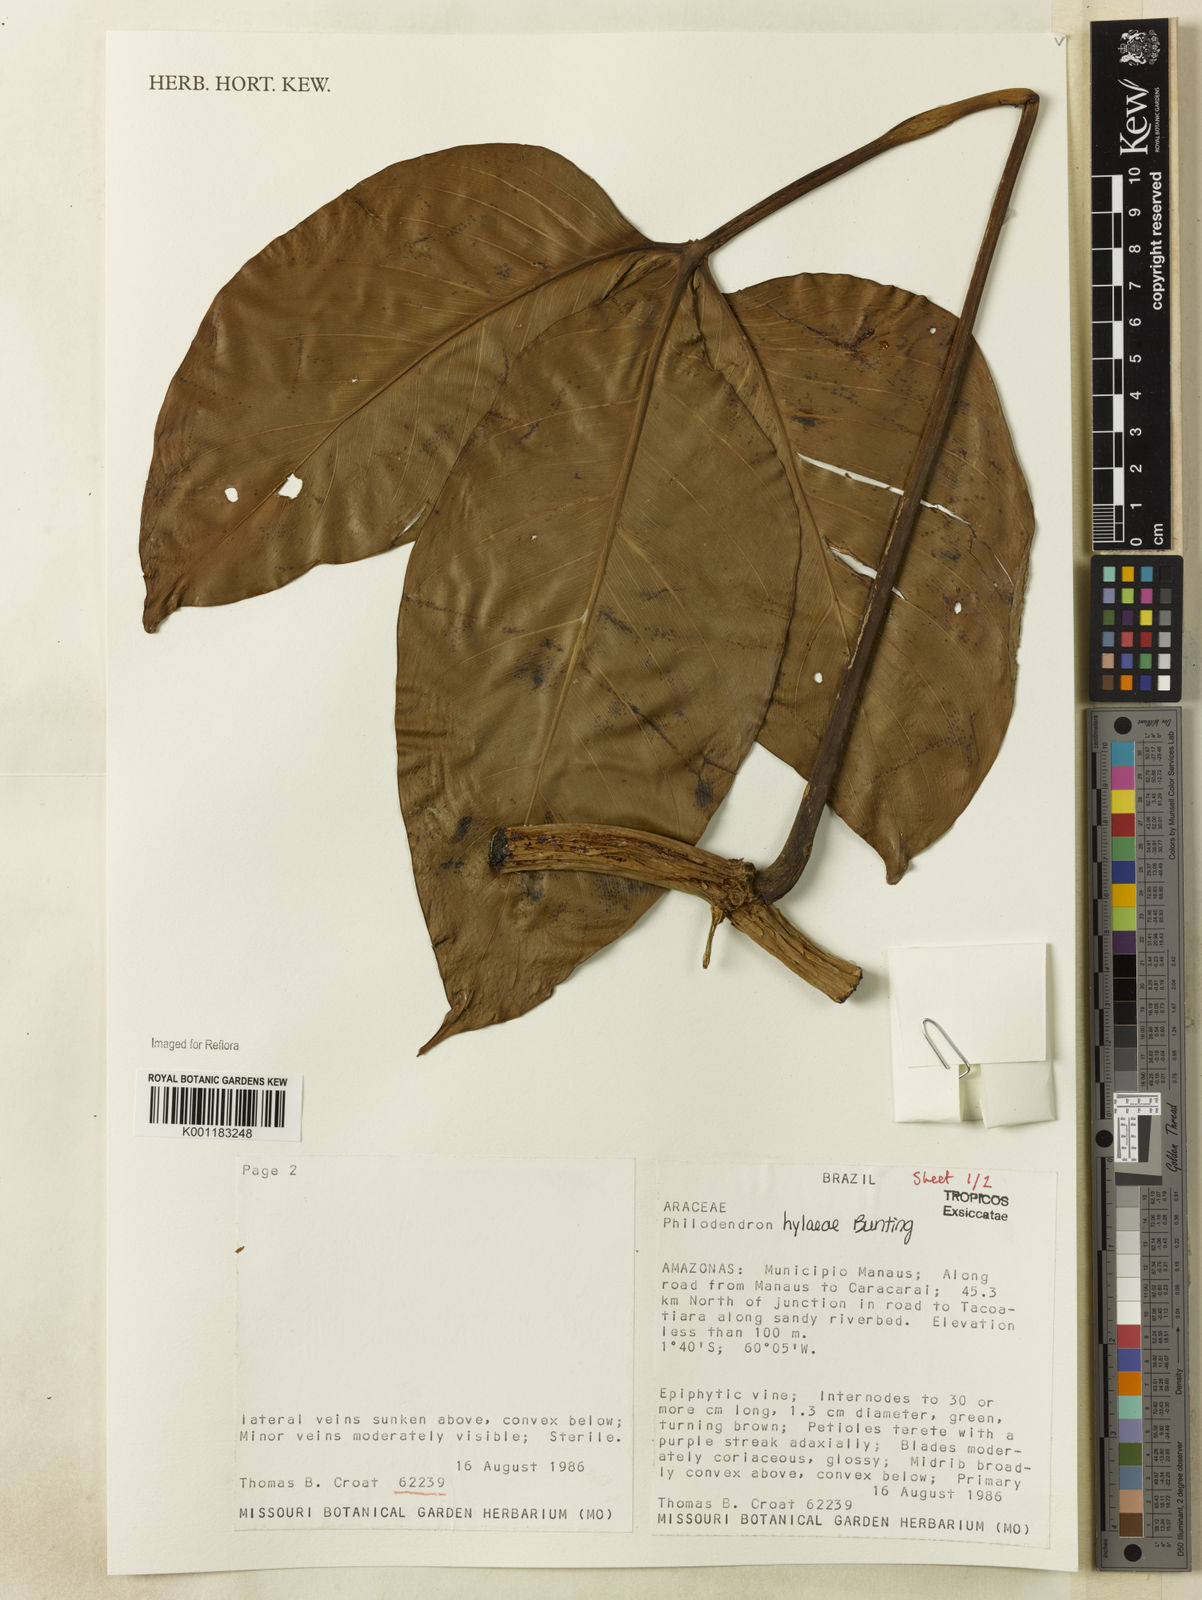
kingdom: Plantae
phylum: Tracheophyta
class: Liliopsida
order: Alismatales
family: Araceae
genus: Philodendron
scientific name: Philodendron hylaeae
